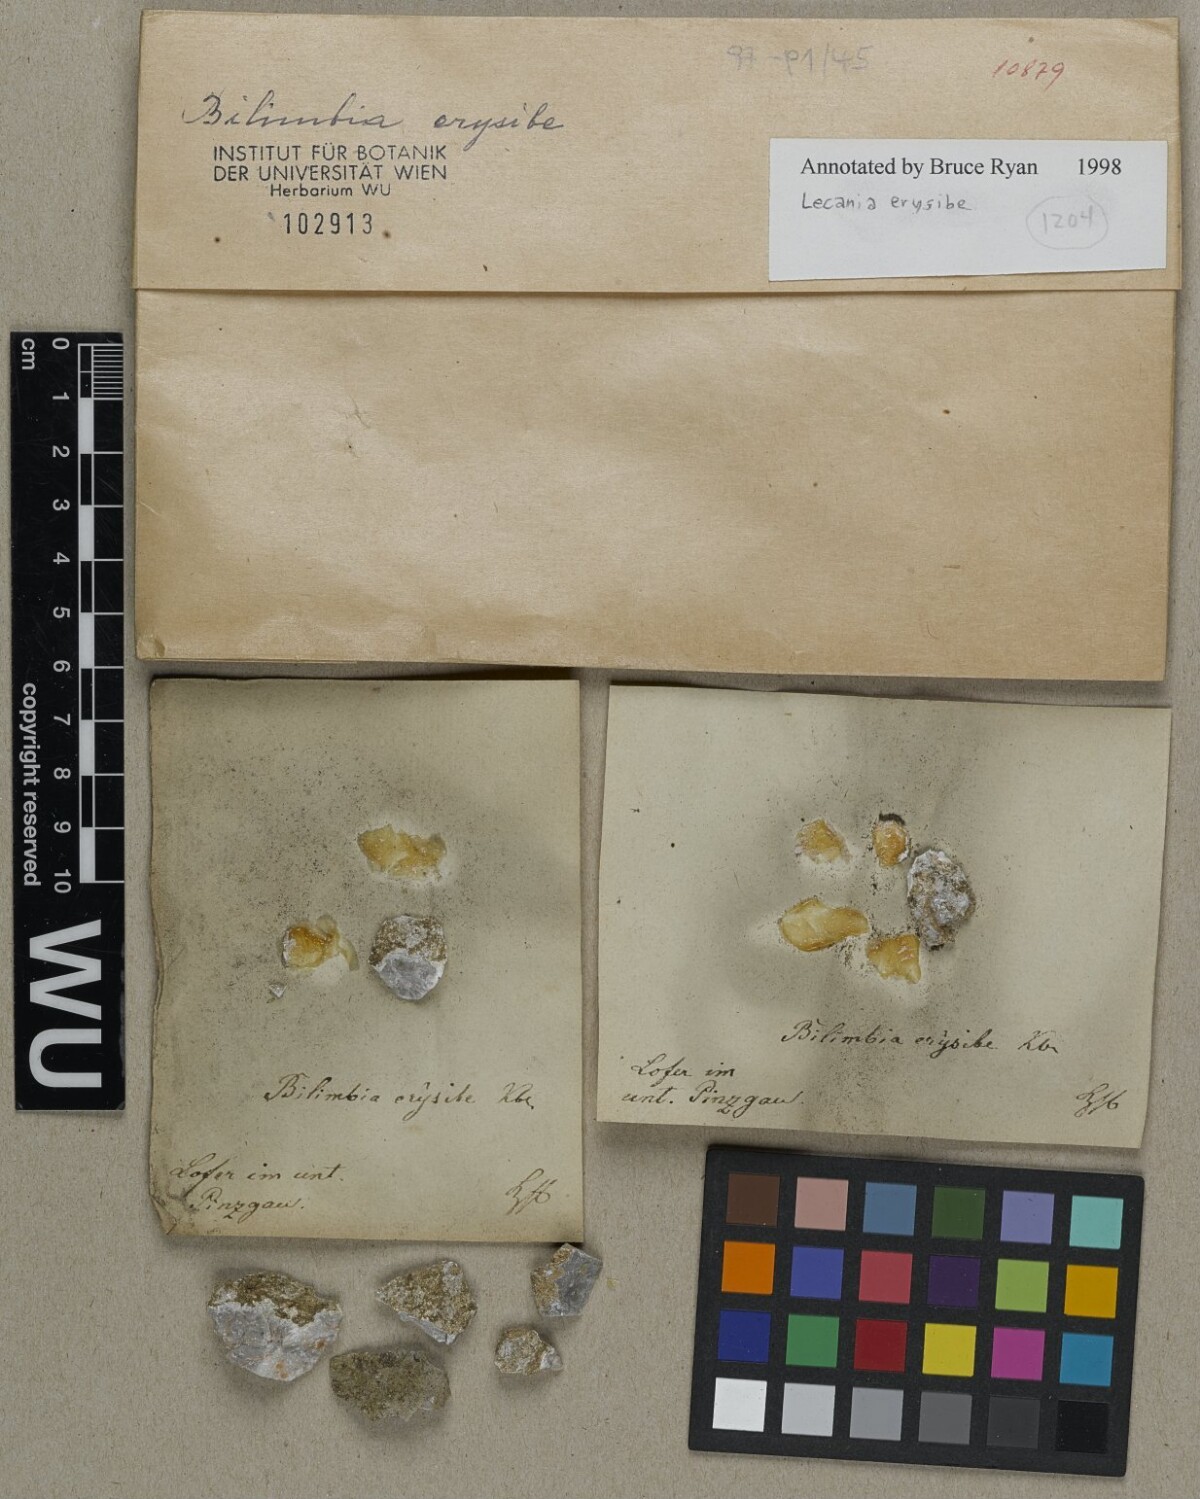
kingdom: Fungi
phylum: Ascomycota
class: Lecanoromycetes
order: Lecanorales
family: Ramalinaceae
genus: Lecania
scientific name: Lecania erysibe
